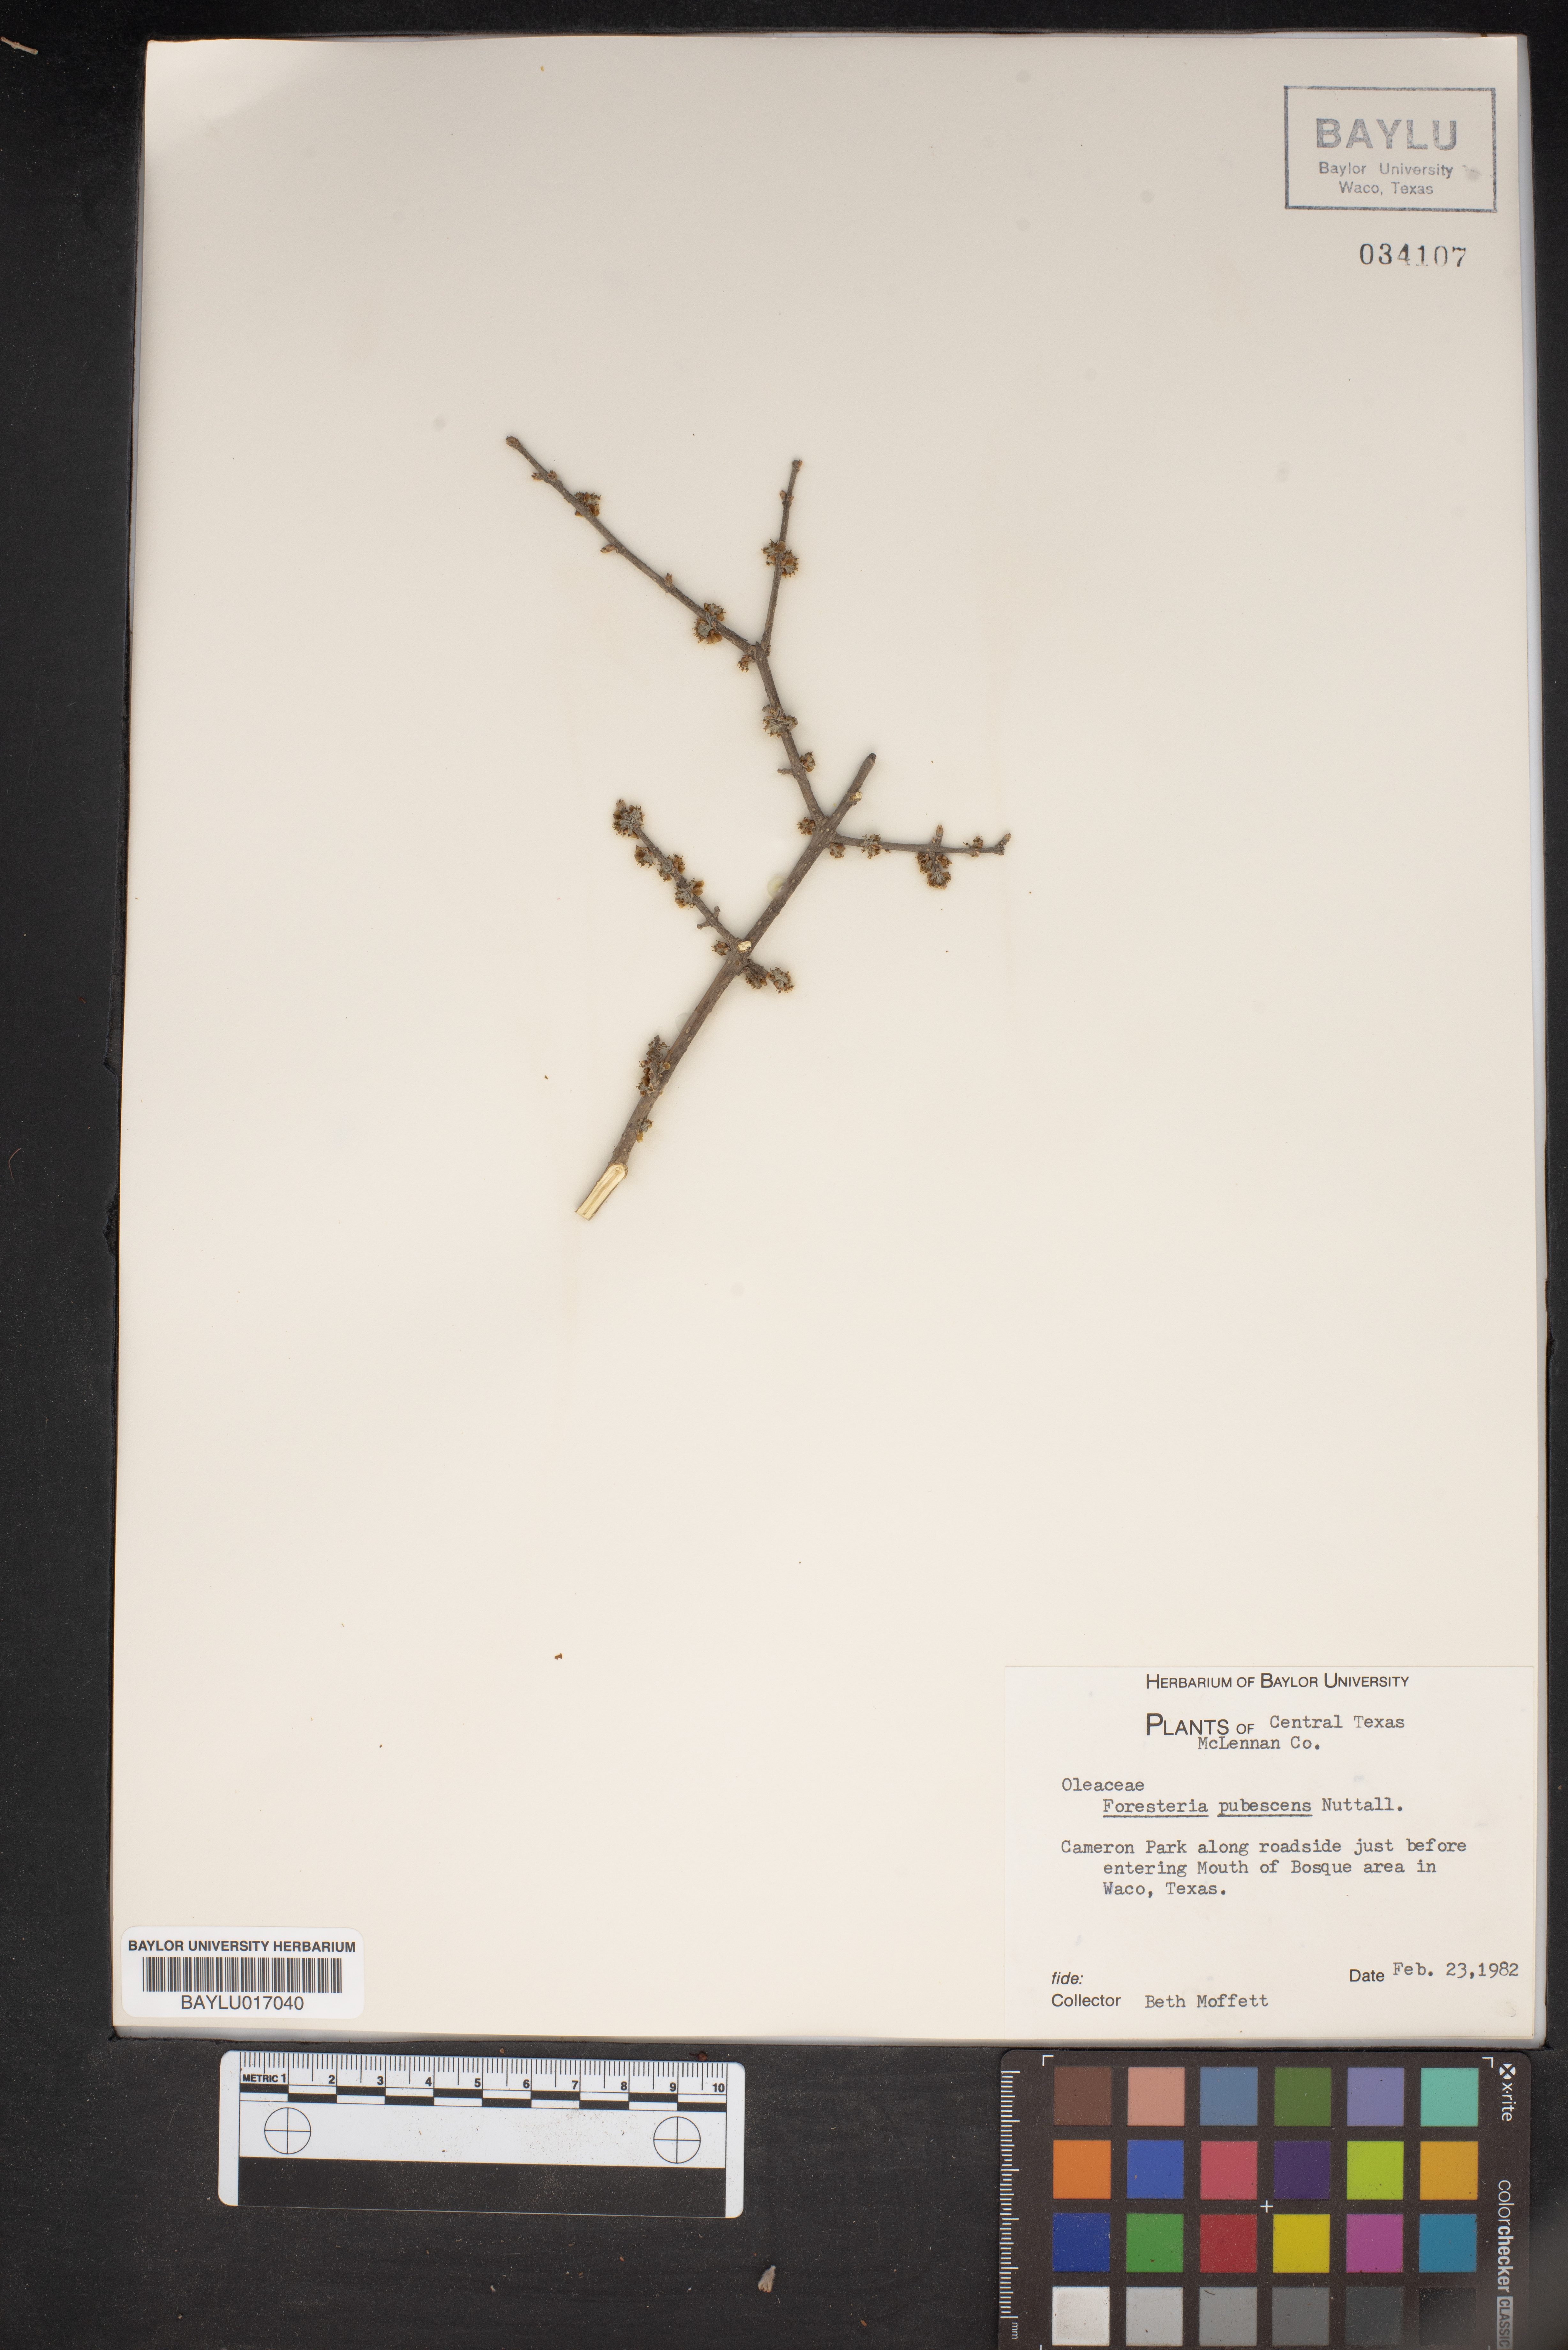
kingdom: Plantae
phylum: Tracheophyta
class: Magnoliopsida
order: Lamiales
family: Oleaceae
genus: Forestiera
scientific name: Forestiera pubescens
